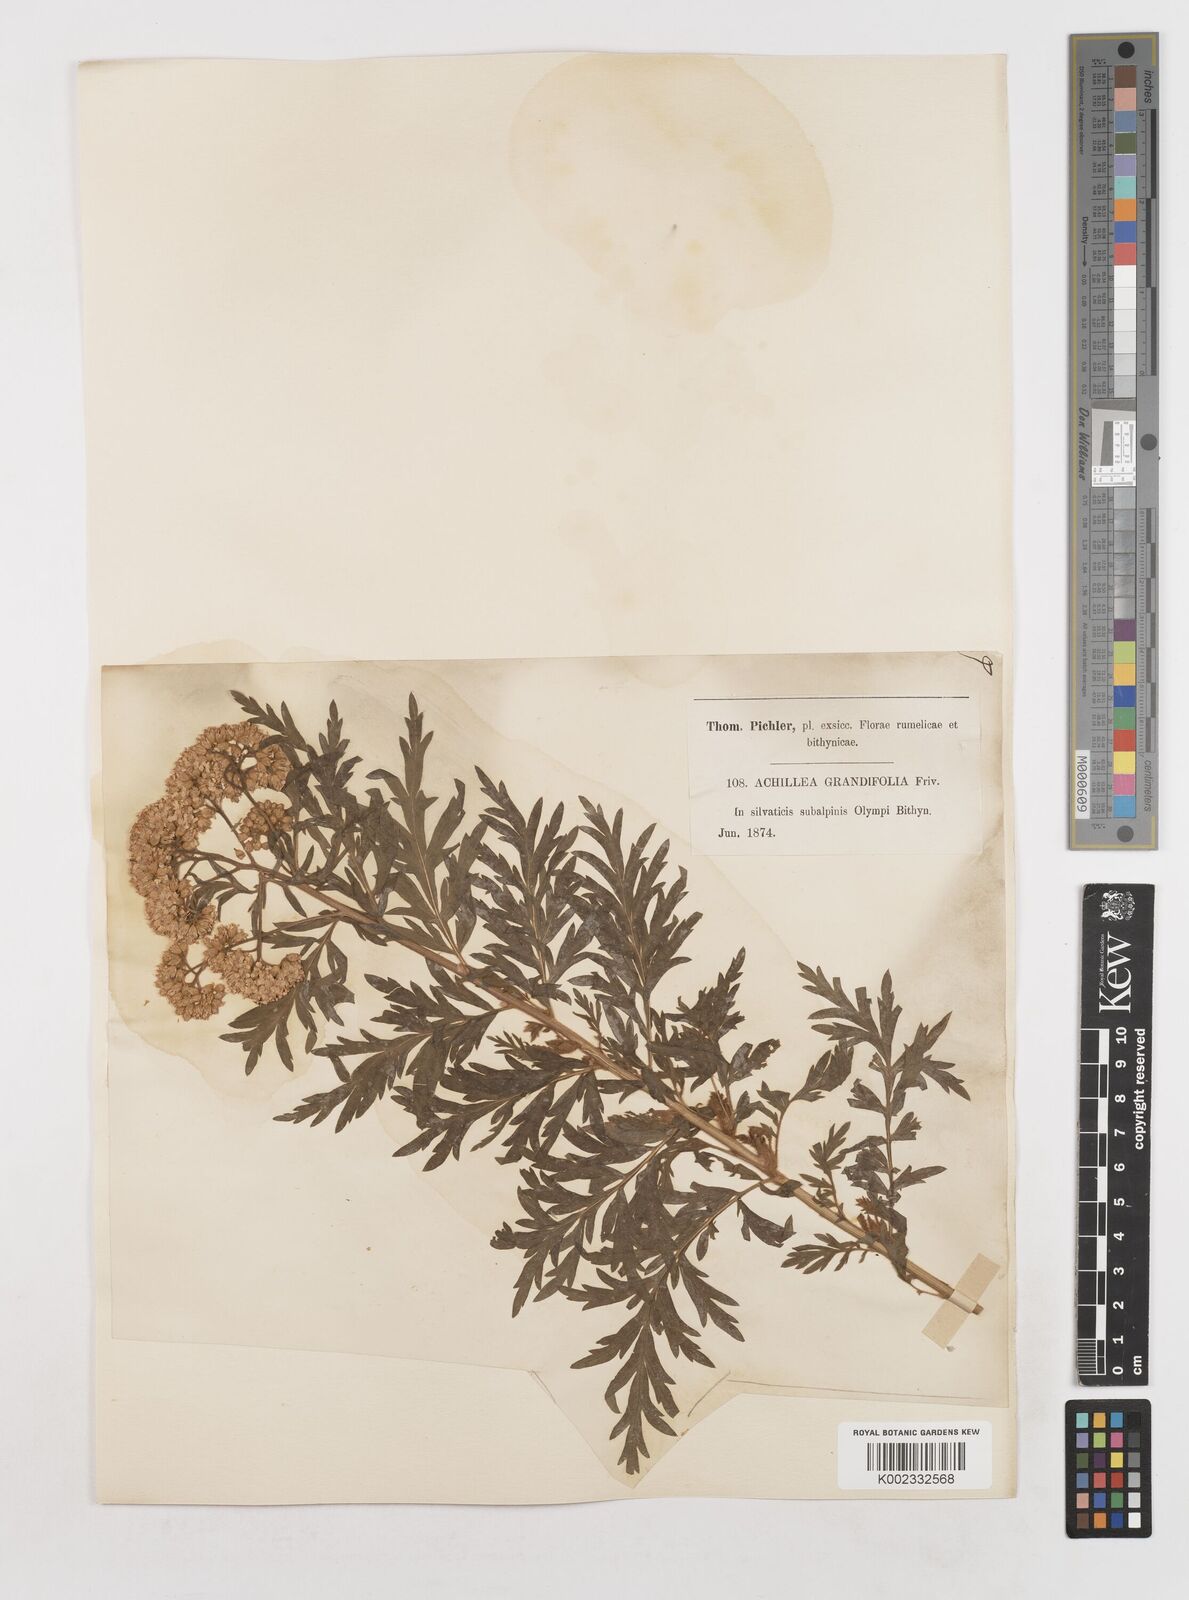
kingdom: Plantae
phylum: Tracheophyta
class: Magnoliopsida
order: Asterales
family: Asteraceae
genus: Achillea
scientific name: Achillea grandifolia
